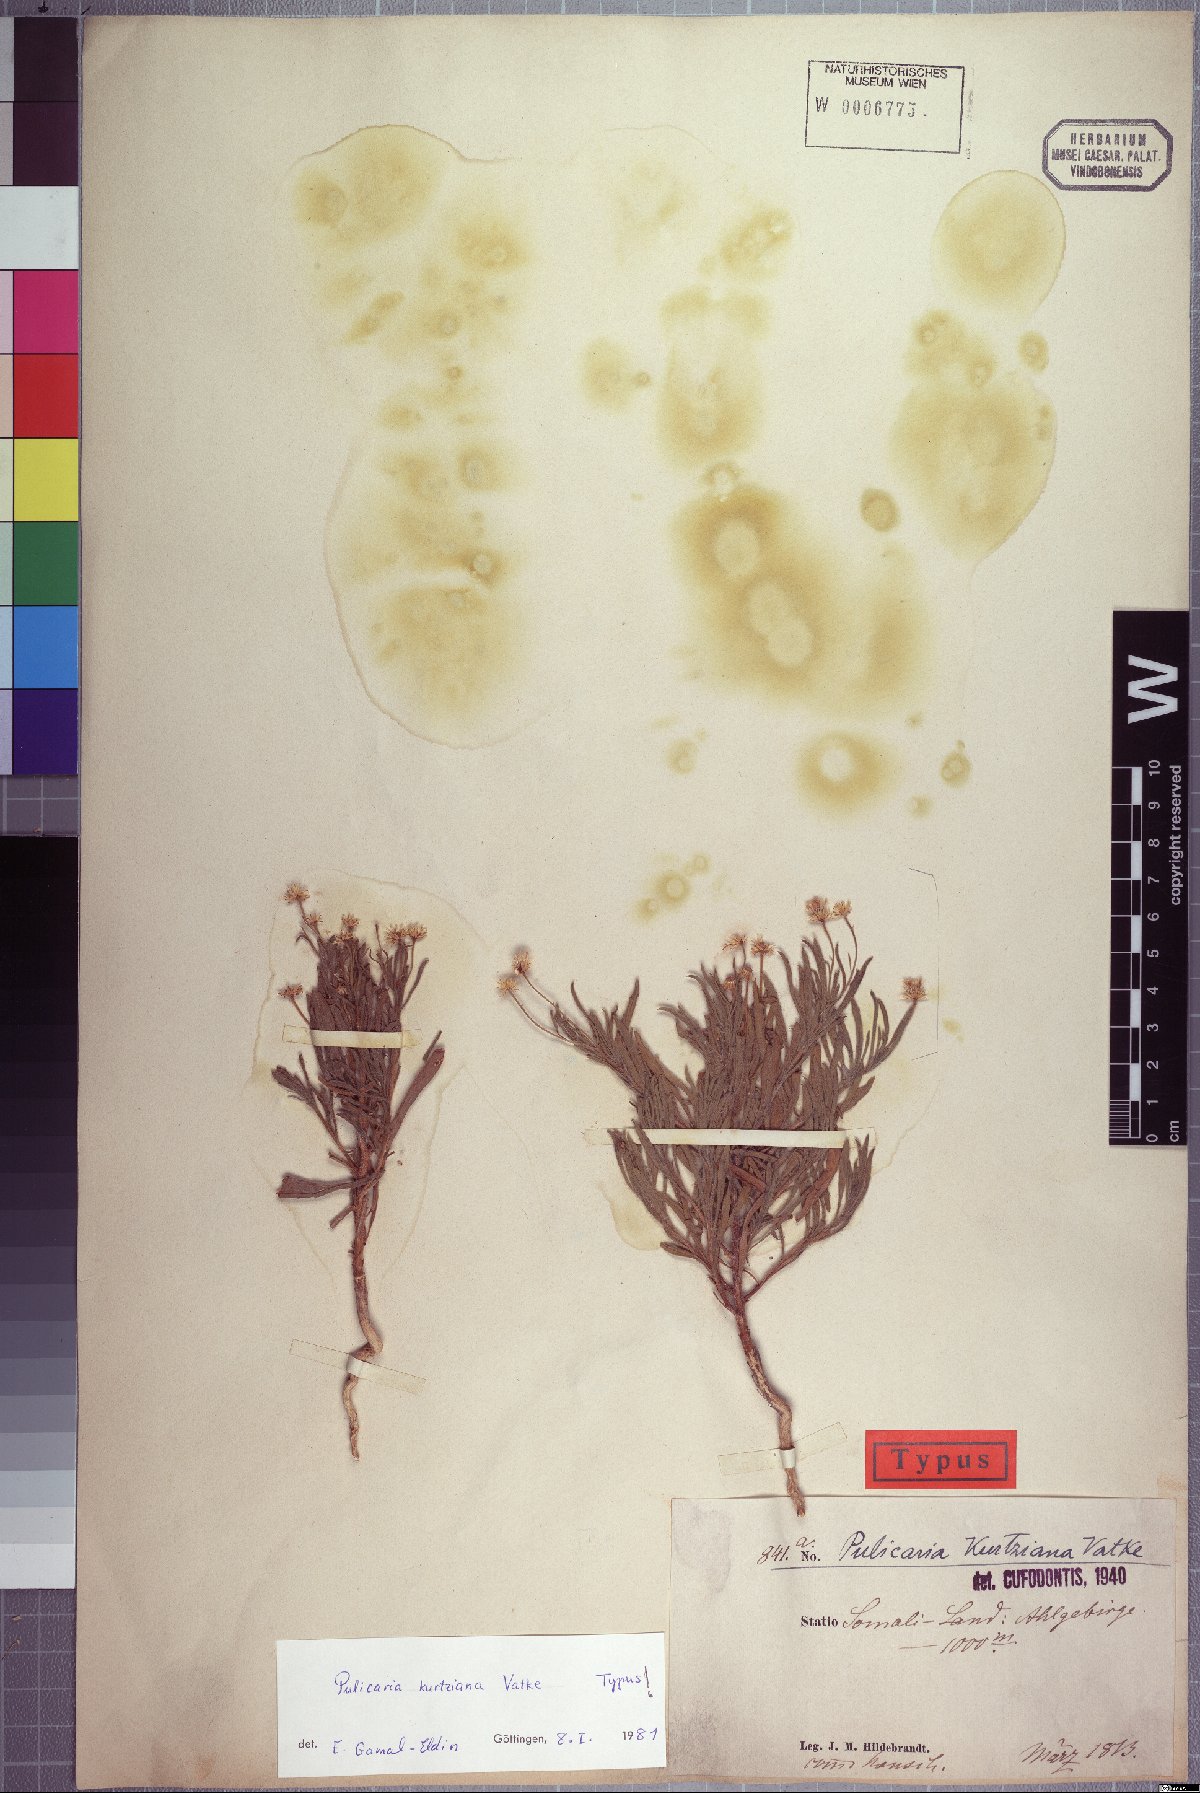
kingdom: Plantae
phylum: Tracheophyta
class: Magnoliopsida
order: Asterales
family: Asteraceae
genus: Pulicaria
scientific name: Pulicaria kurtziana
